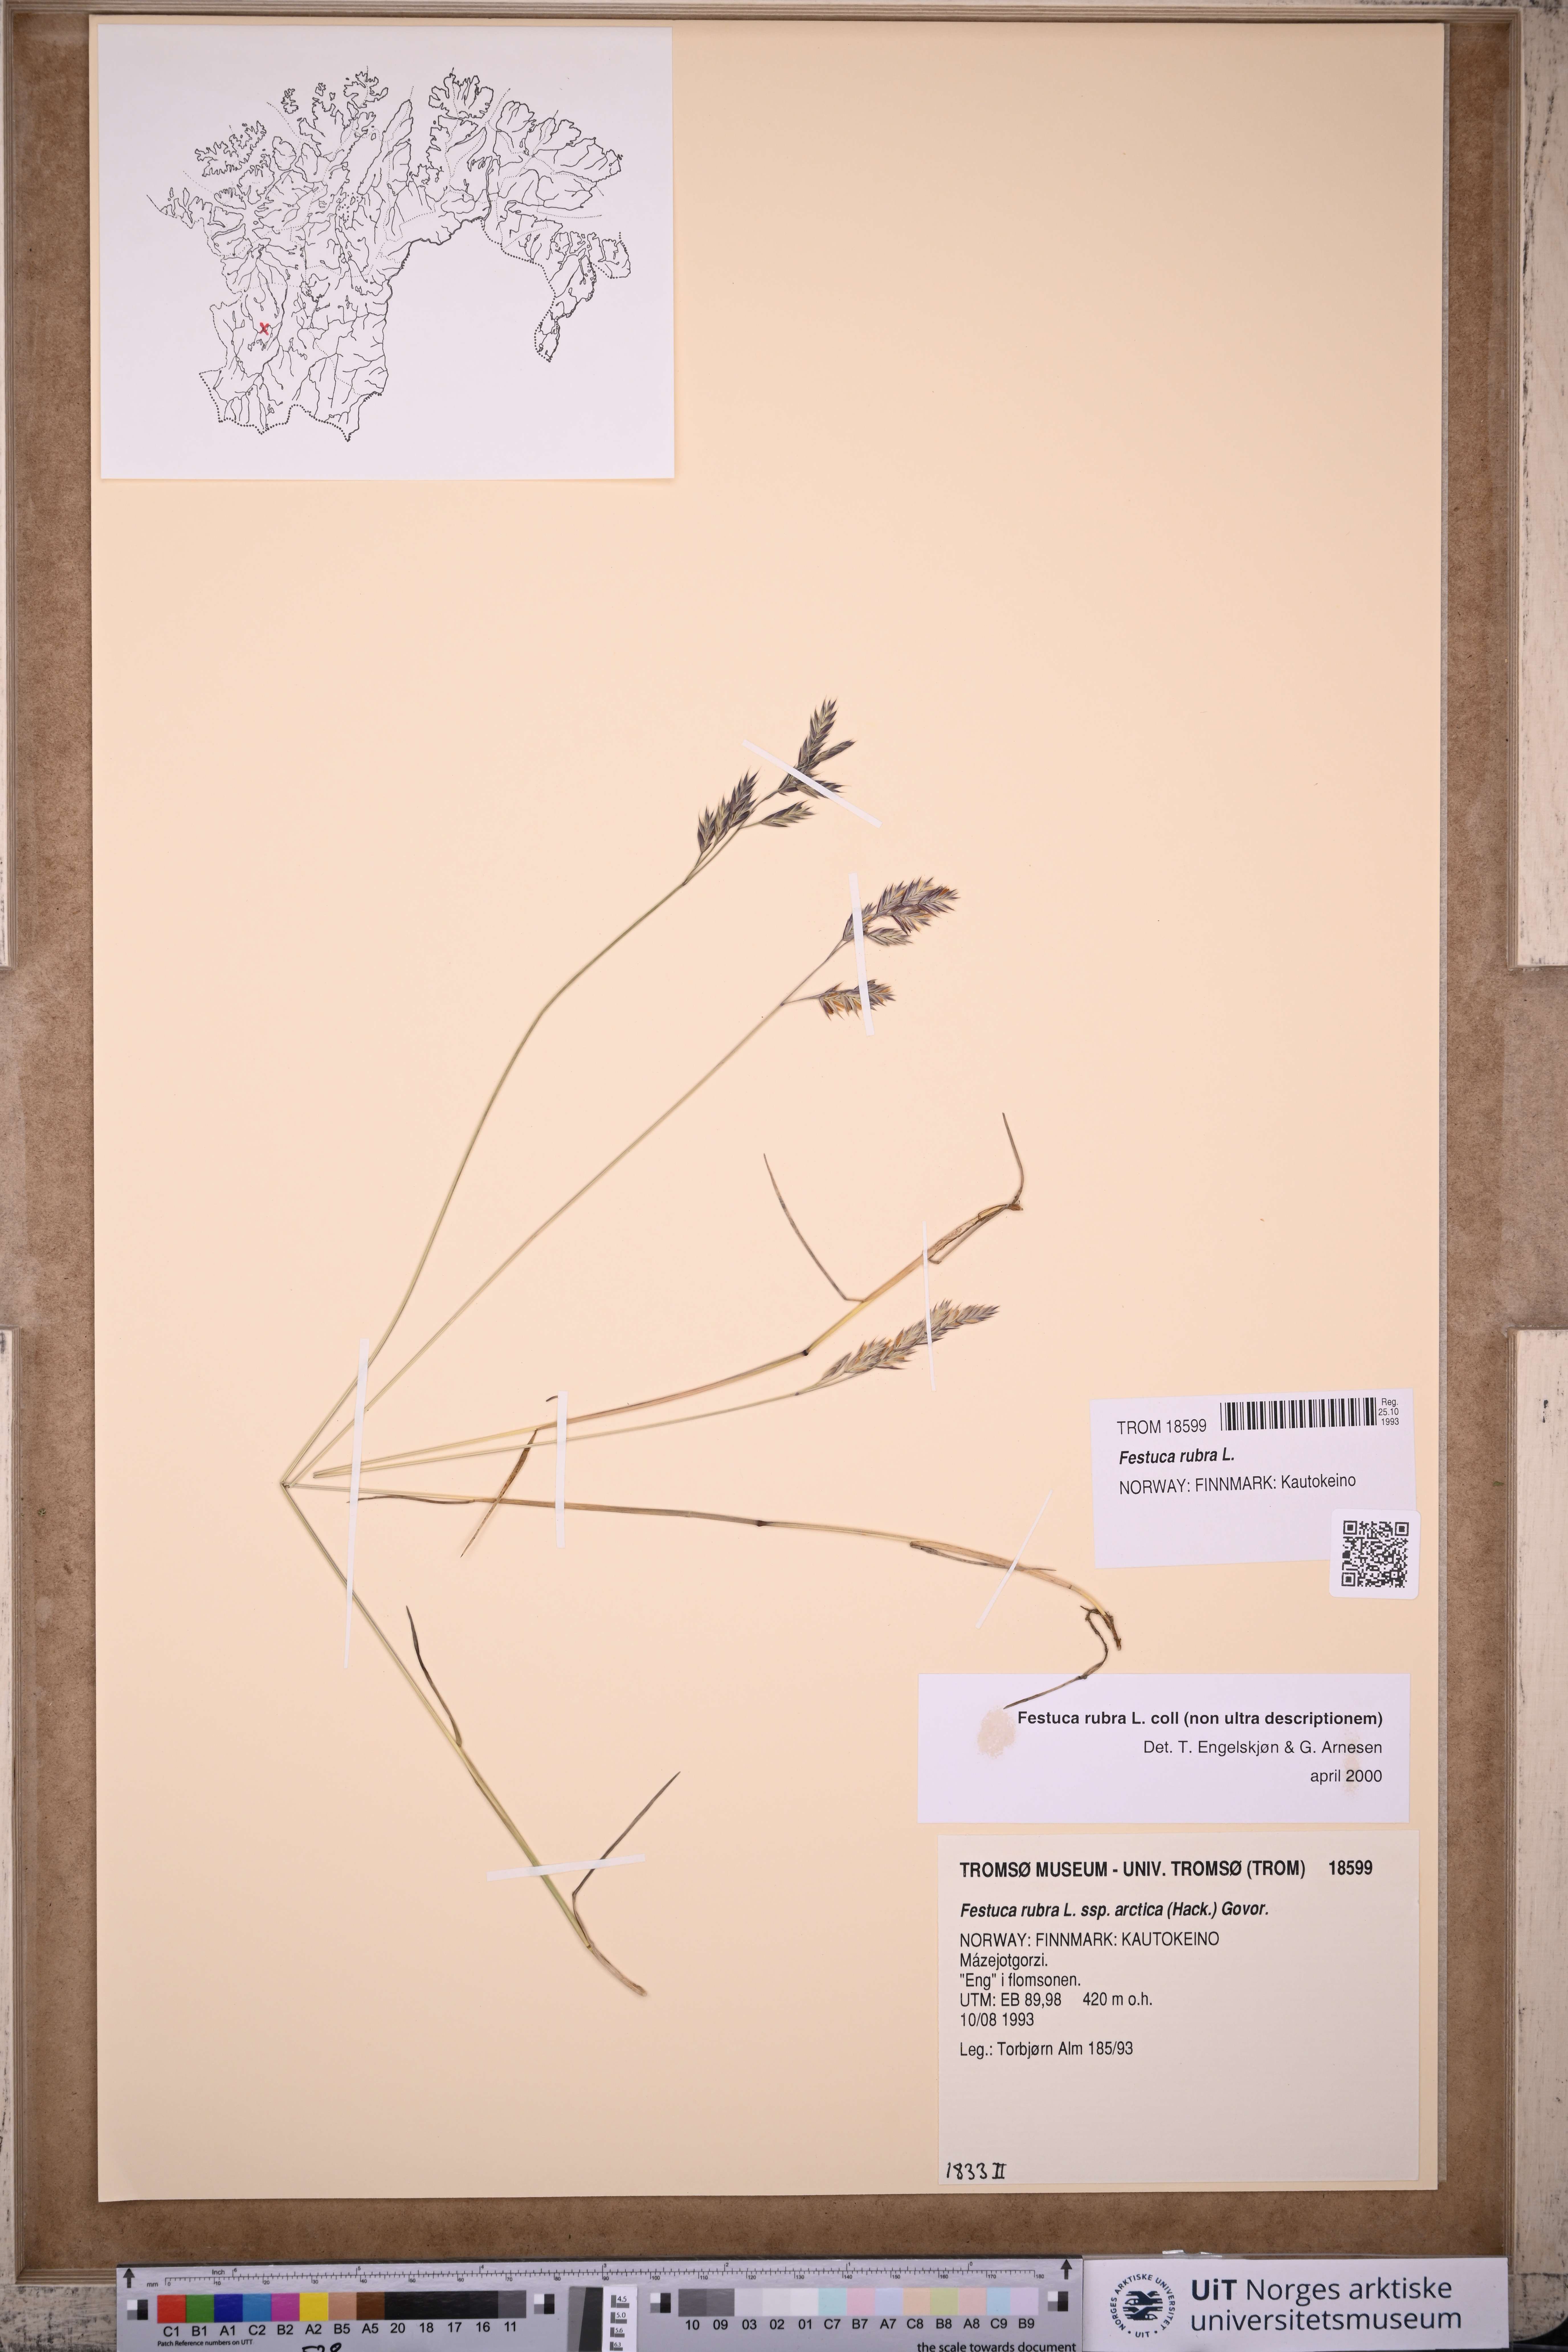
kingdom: Plantae
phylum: Tracheophyta
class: Liliopsida
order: Poales
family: Poaceae
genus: Festuca
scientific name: Festuca rubra
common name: Red fescue
